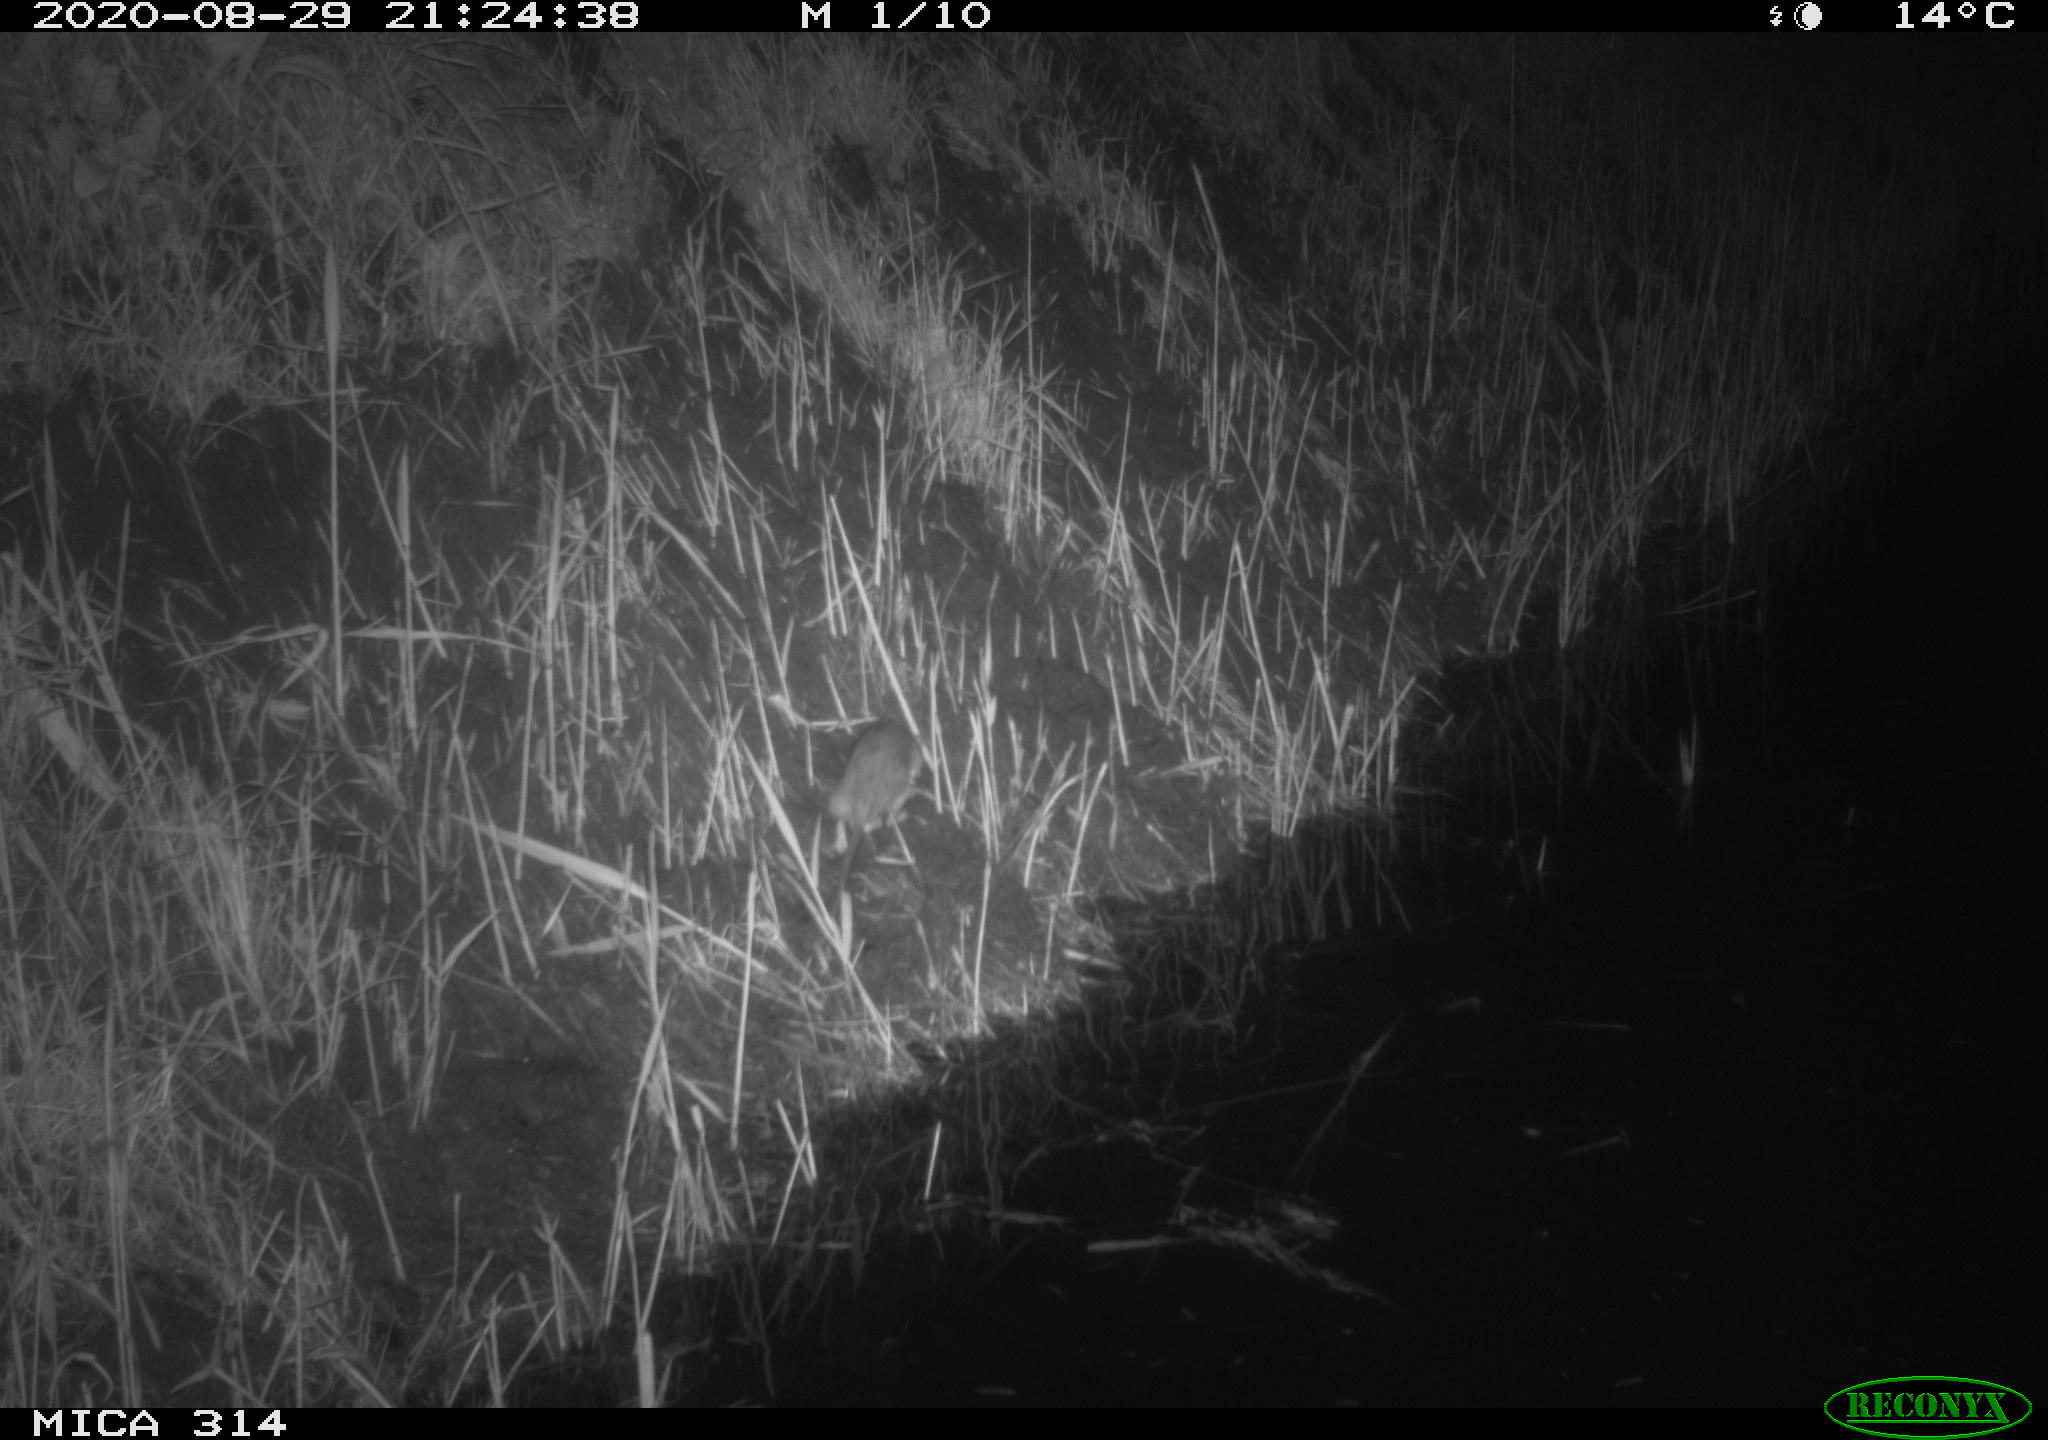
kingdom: Animalia
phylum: Chordata
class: Mammalia
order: Rodentia
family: Muridae
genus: Rattus
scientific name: Rattus norvegicus
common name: Brown rat
